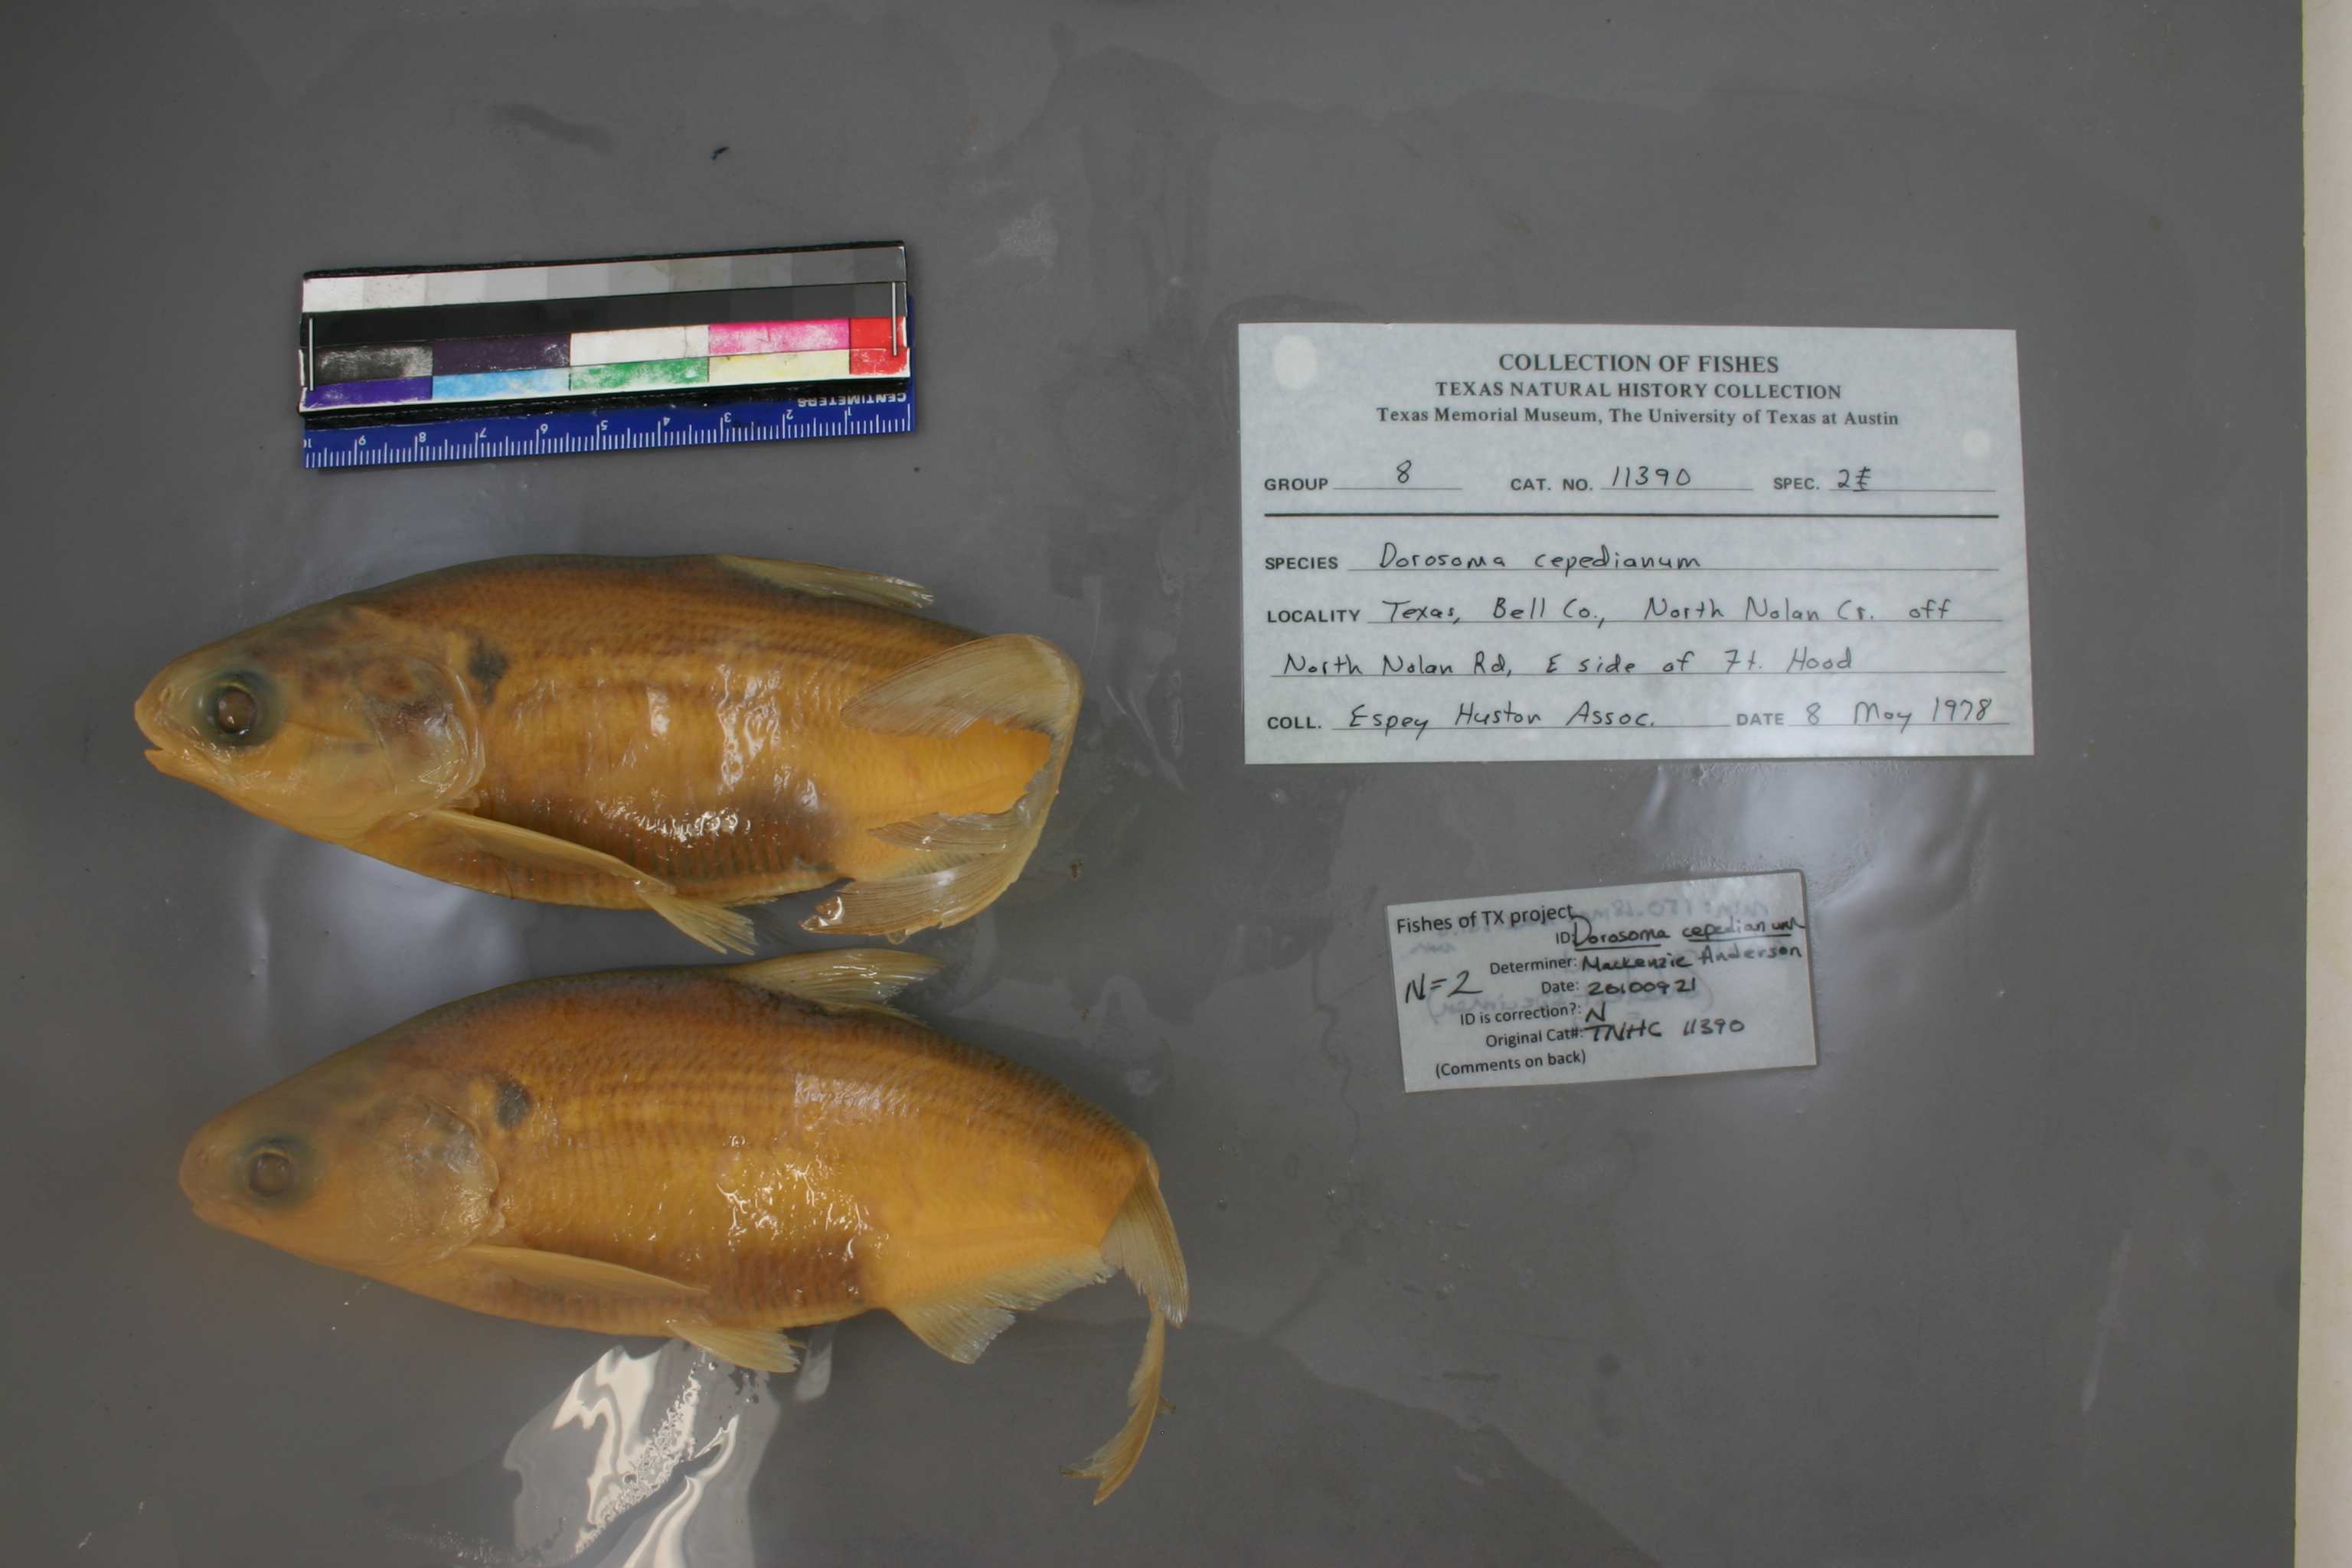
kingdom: Animalia
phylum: Chordata
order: Clupeiformes
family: Clupeidae
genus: Dorosoma
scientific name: Dorosoma cepedianum
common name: Gizzard shad
